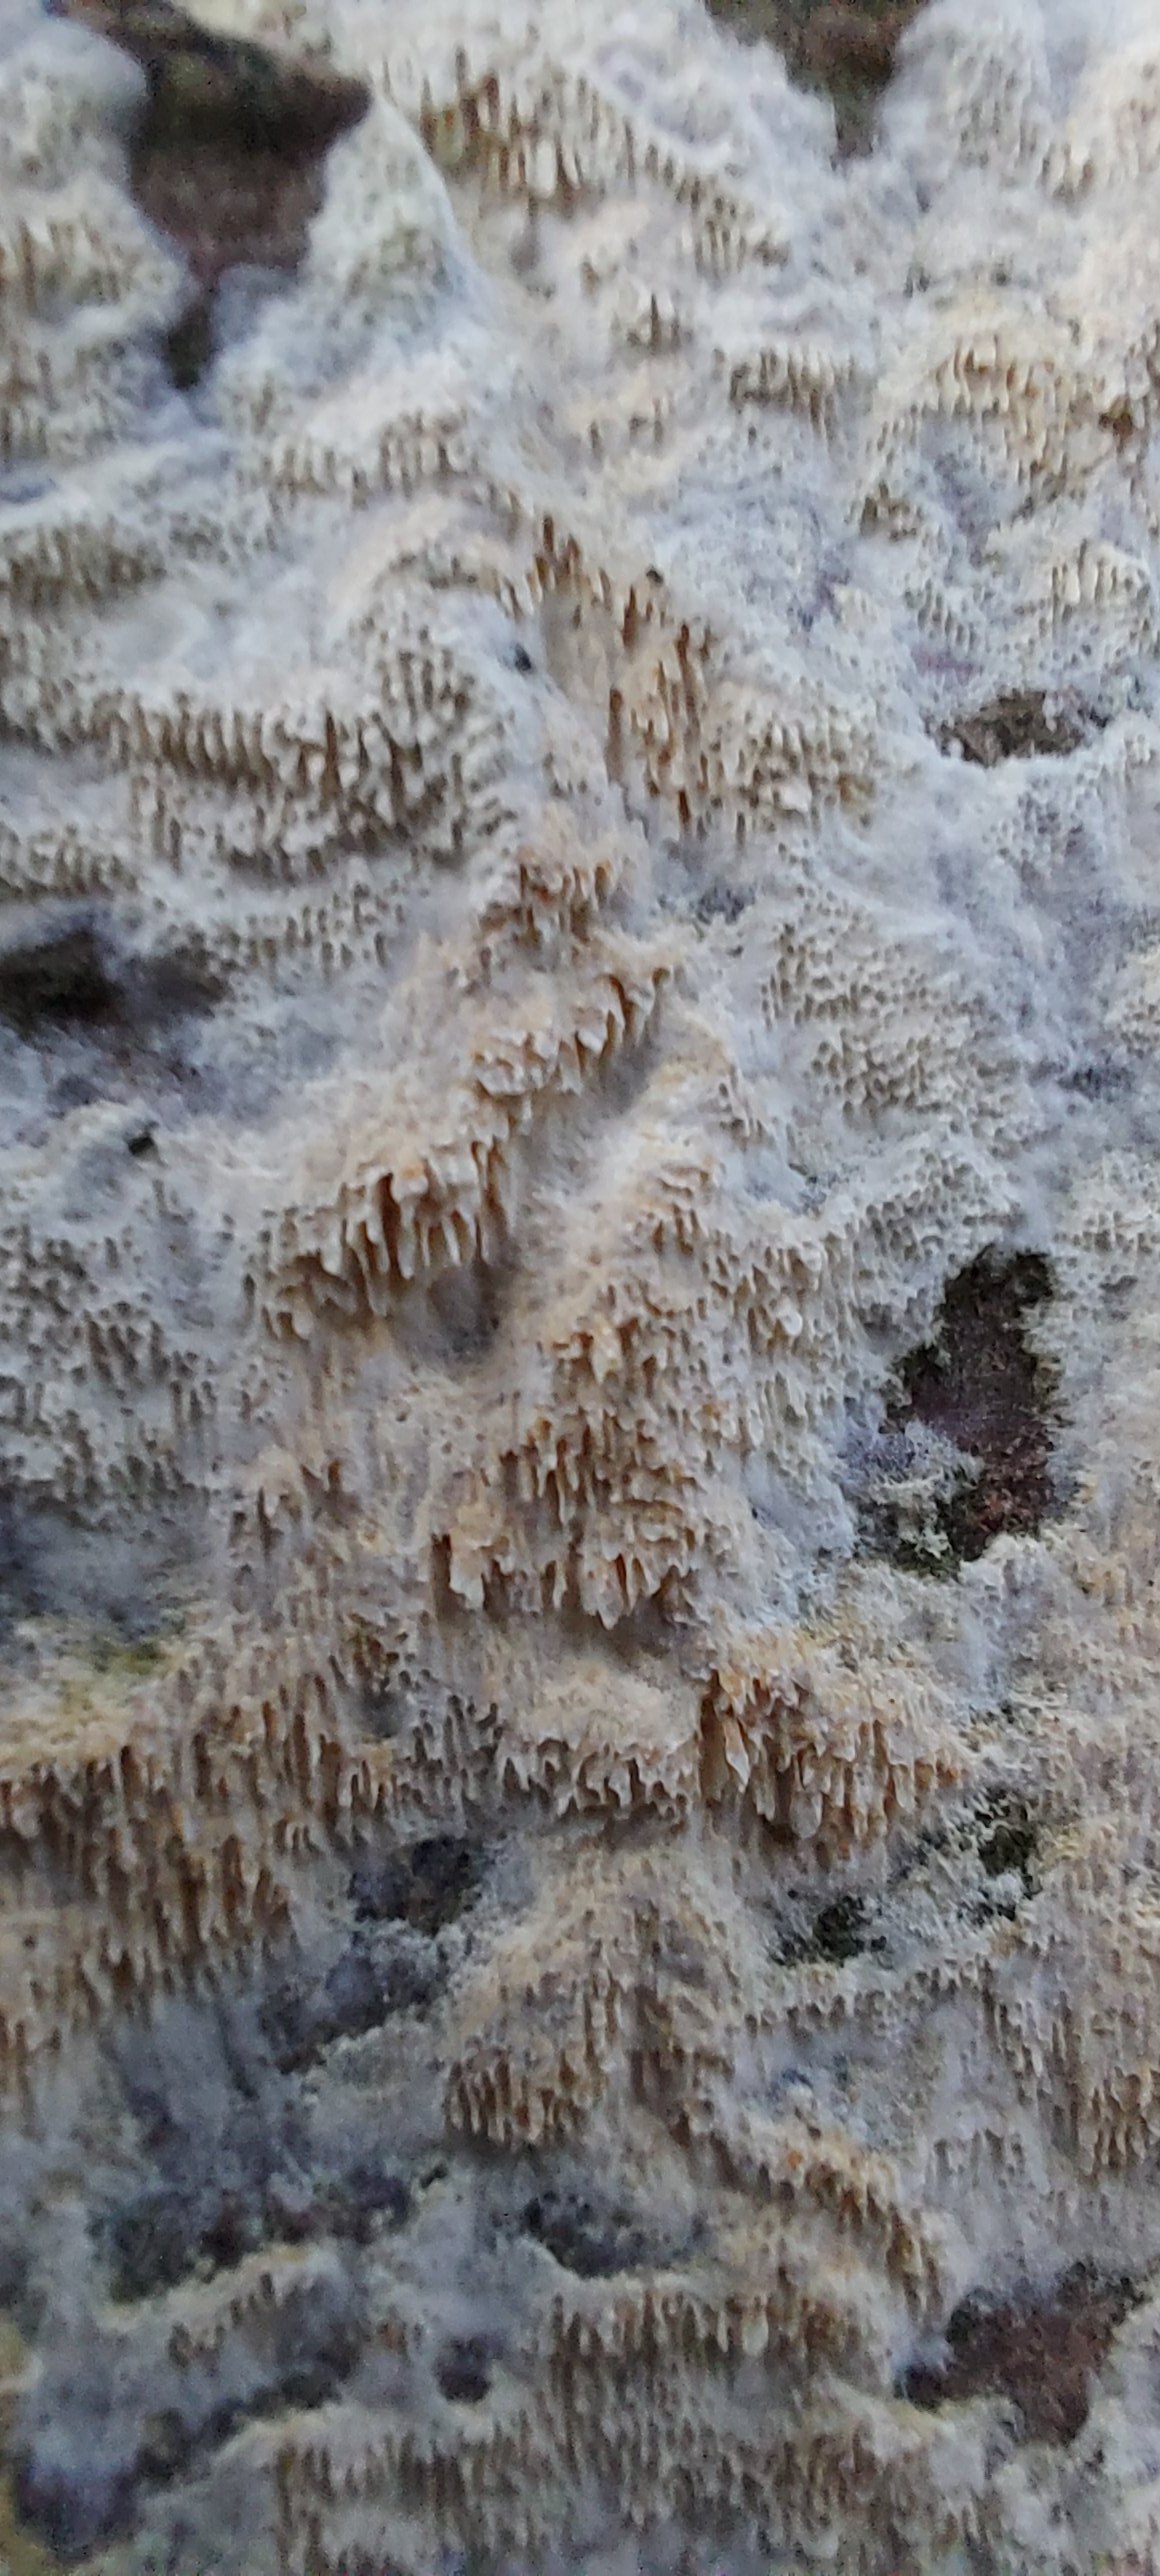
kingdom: Fungi
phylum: Basidiomycota
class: Agaricomycetes
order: Hymenochaetales
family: Schizoporaceae
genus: Schizopora
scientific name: Schizopora paradoxa
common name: hvid tandsvamp
